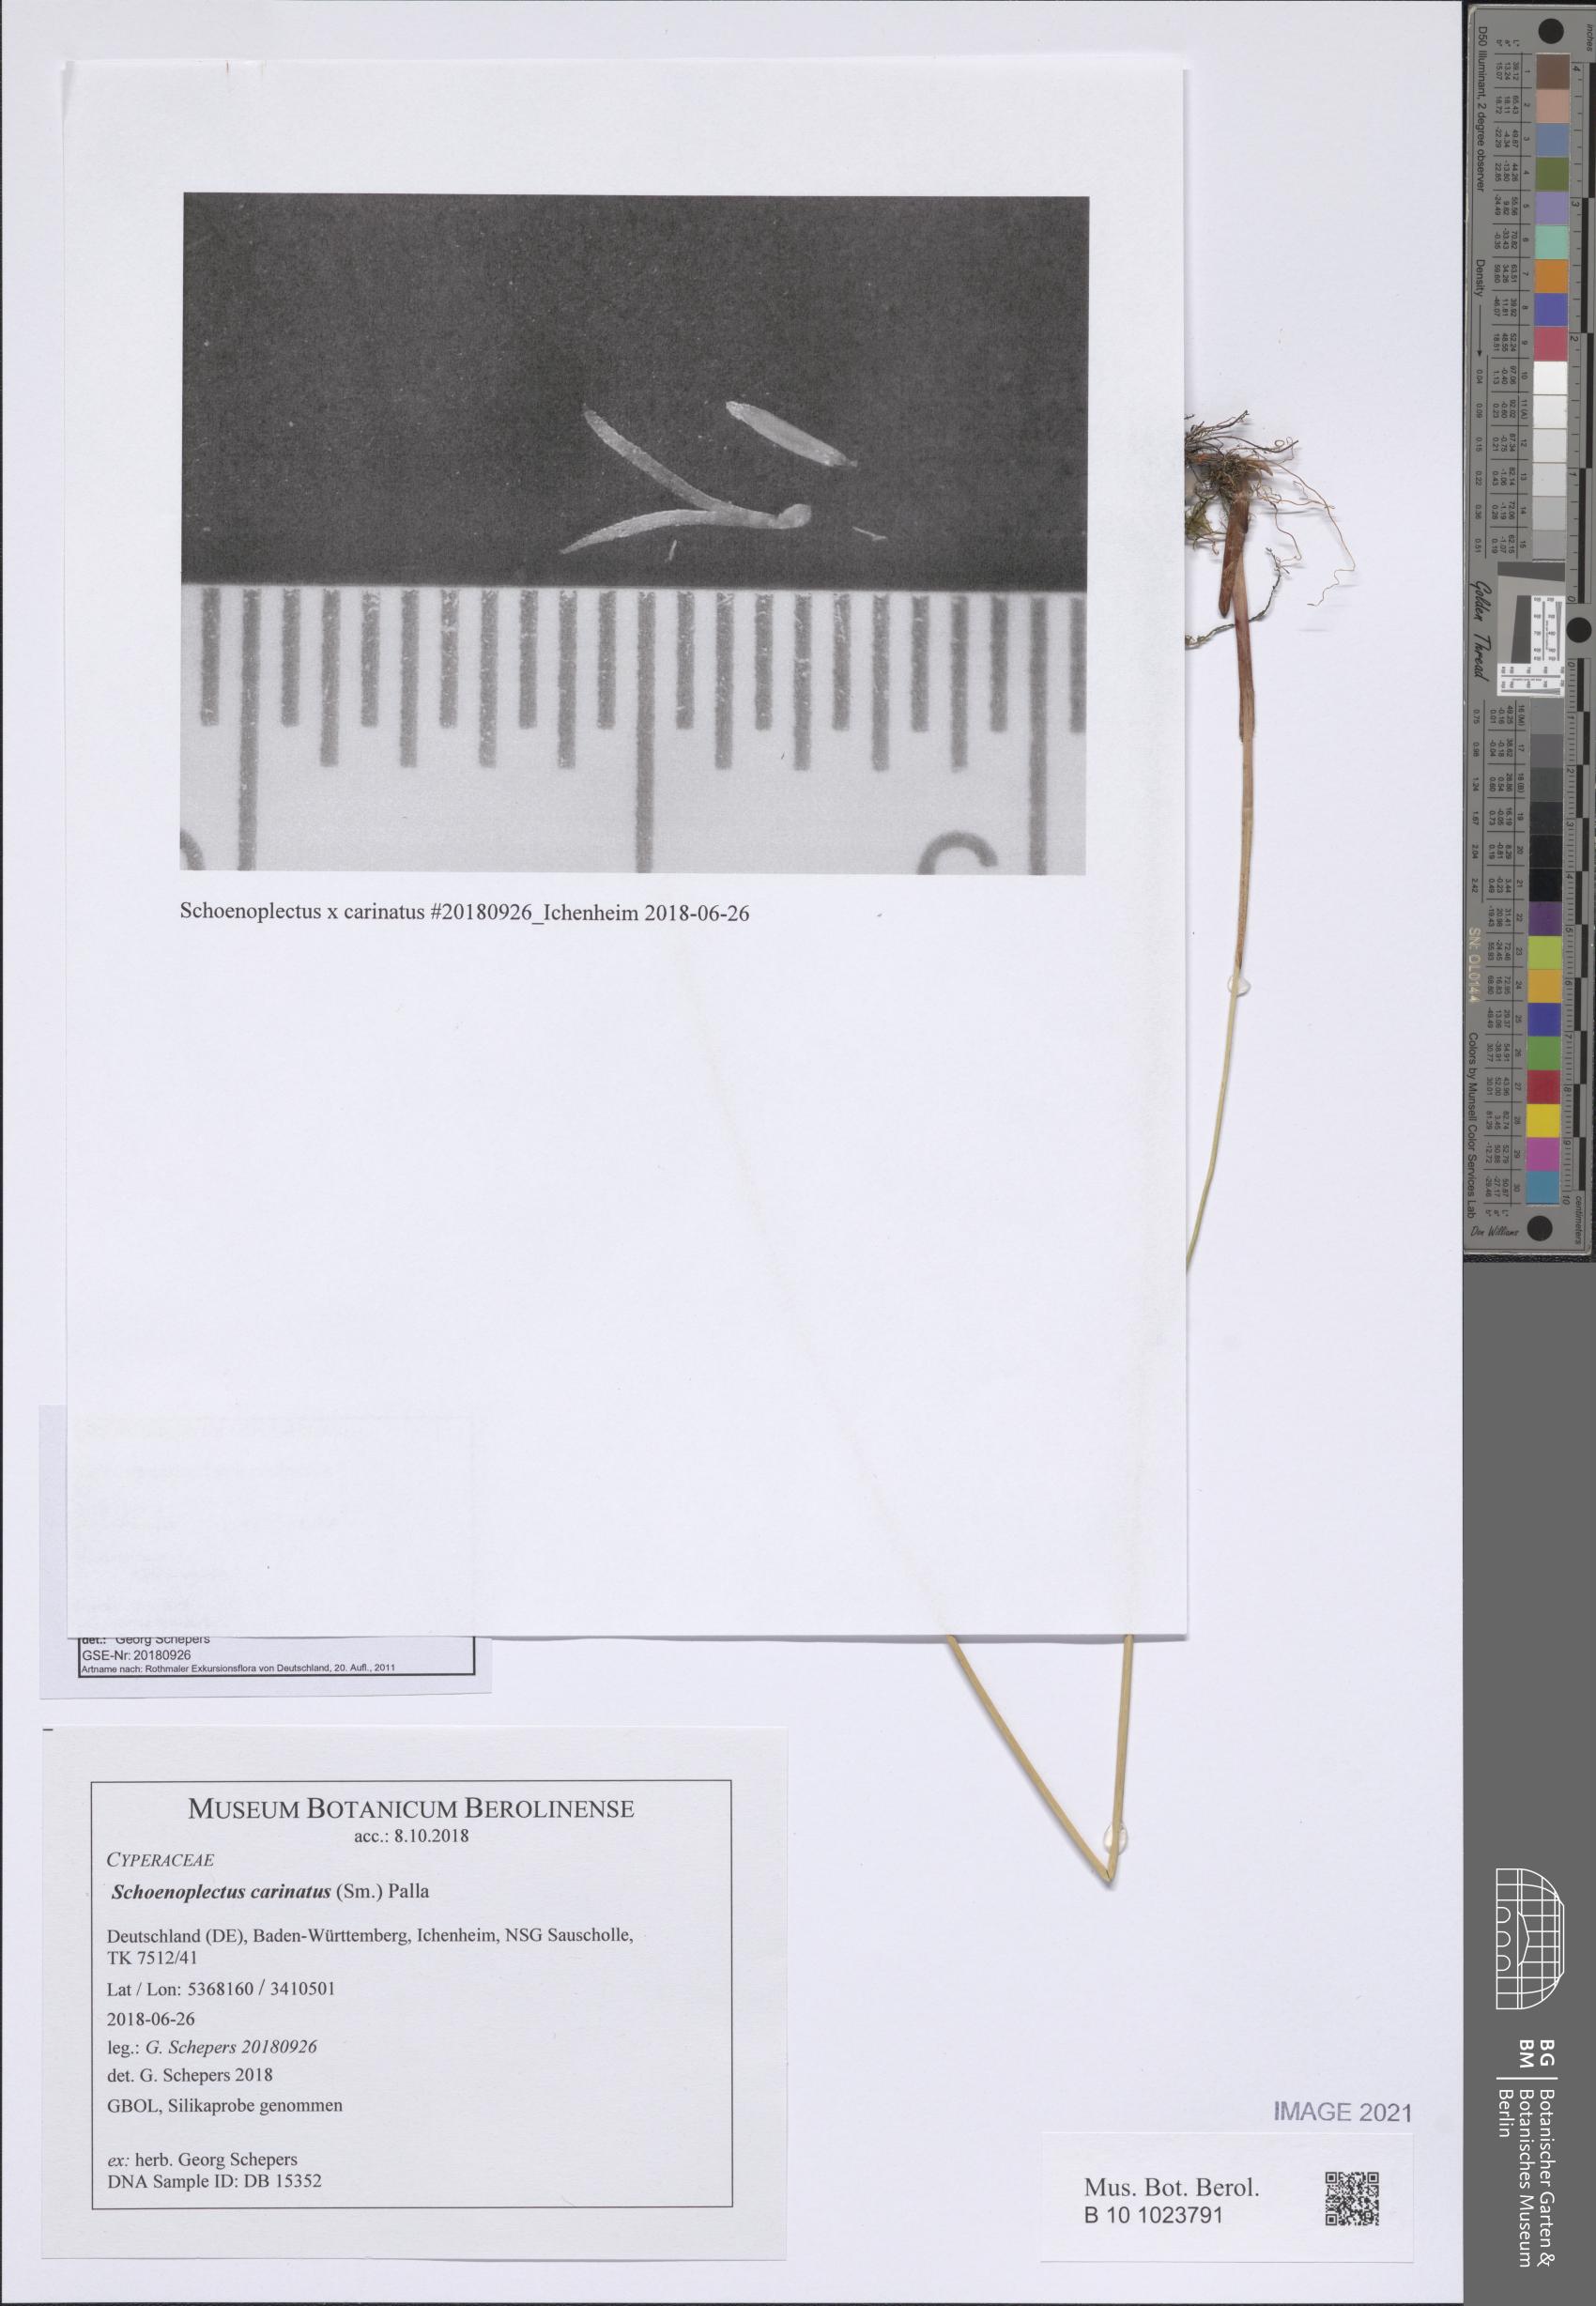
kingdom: Plantae
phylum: Tracheophyta
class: Liliopsida
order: Poales
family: Cyperaceae
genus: Schoenoplectus
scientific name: Schoenoplectus carinatus
